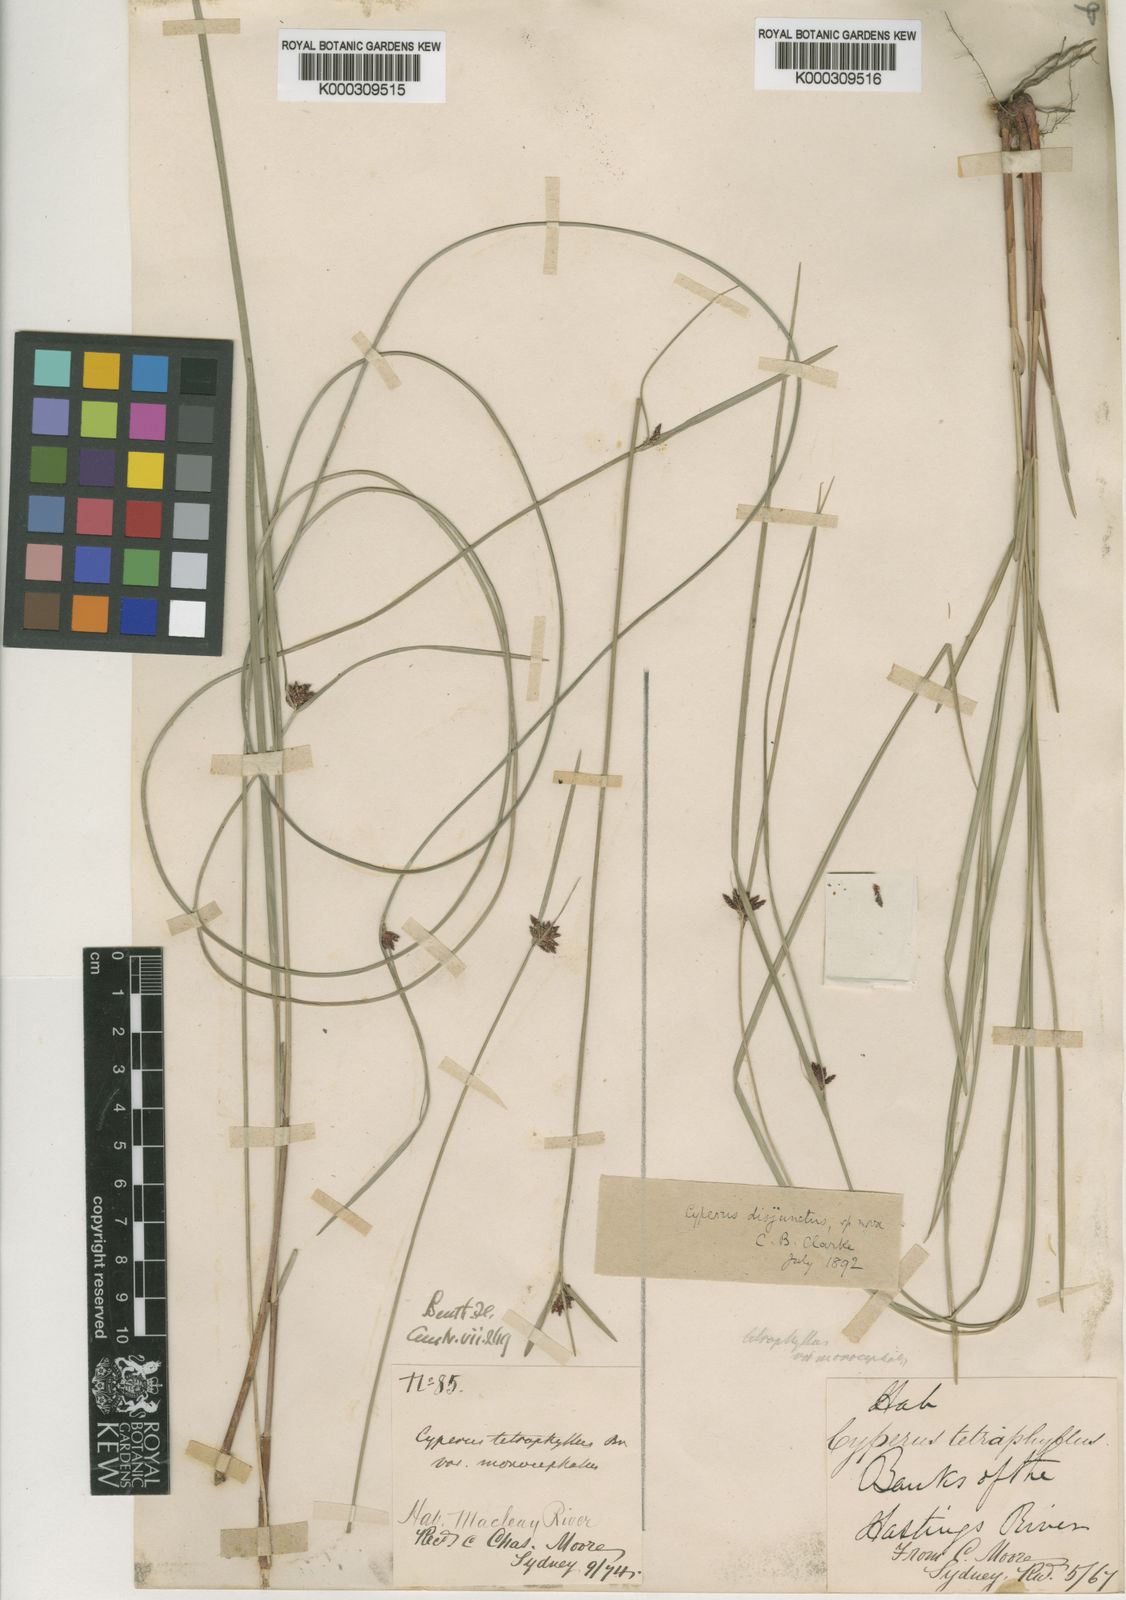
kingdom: Plantae
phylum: Tracheophyta
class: Liliopsida
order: Poales
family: Cyperaceae
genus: Cyperus
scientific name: Cyperus disjunctus
